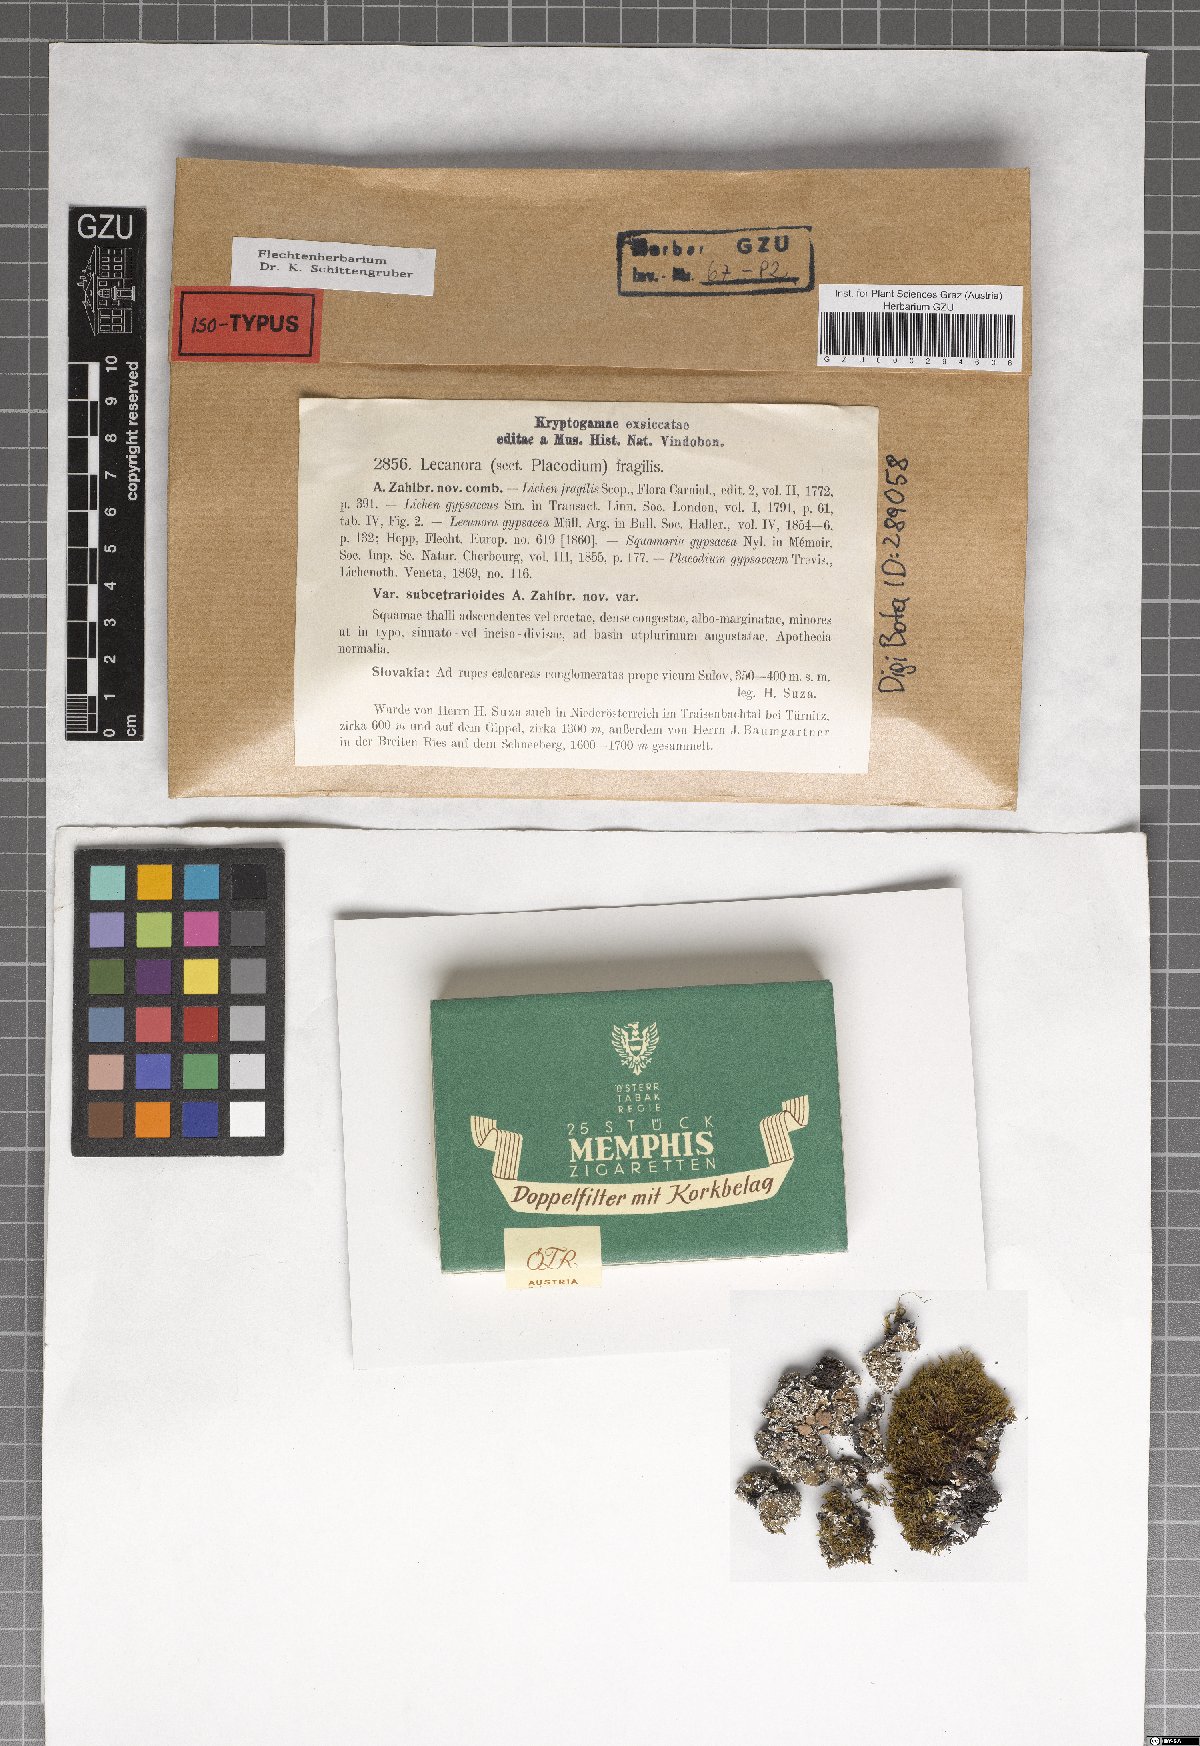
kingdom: Fungi
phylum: Ascomycota
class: Lecanoromycetes
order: Lecanorales
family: Stereocaulaceae
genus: Squamarina
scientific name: Squamarina gypsacea
